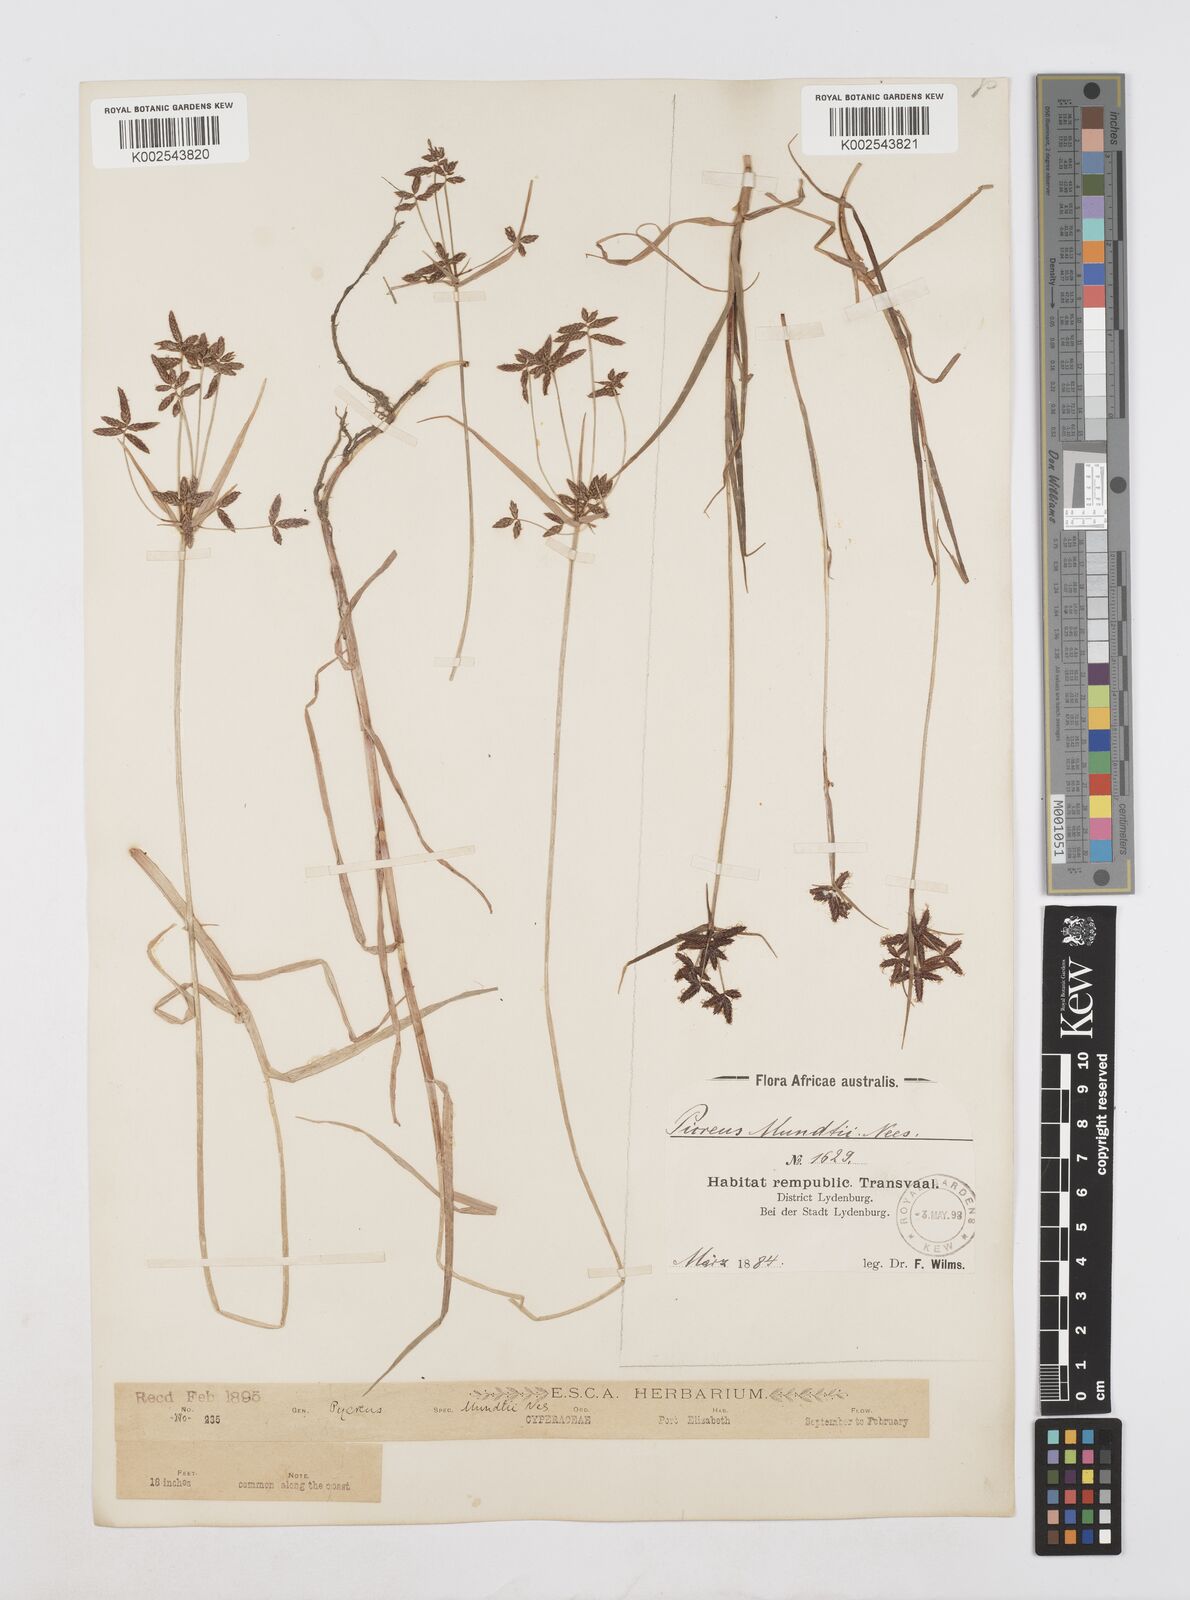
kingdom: Plantae
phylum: Tracheophyta
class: Liliopsida
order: Poales
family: Cyperaceae
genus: Cyperus
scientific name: Cyperus mundii
